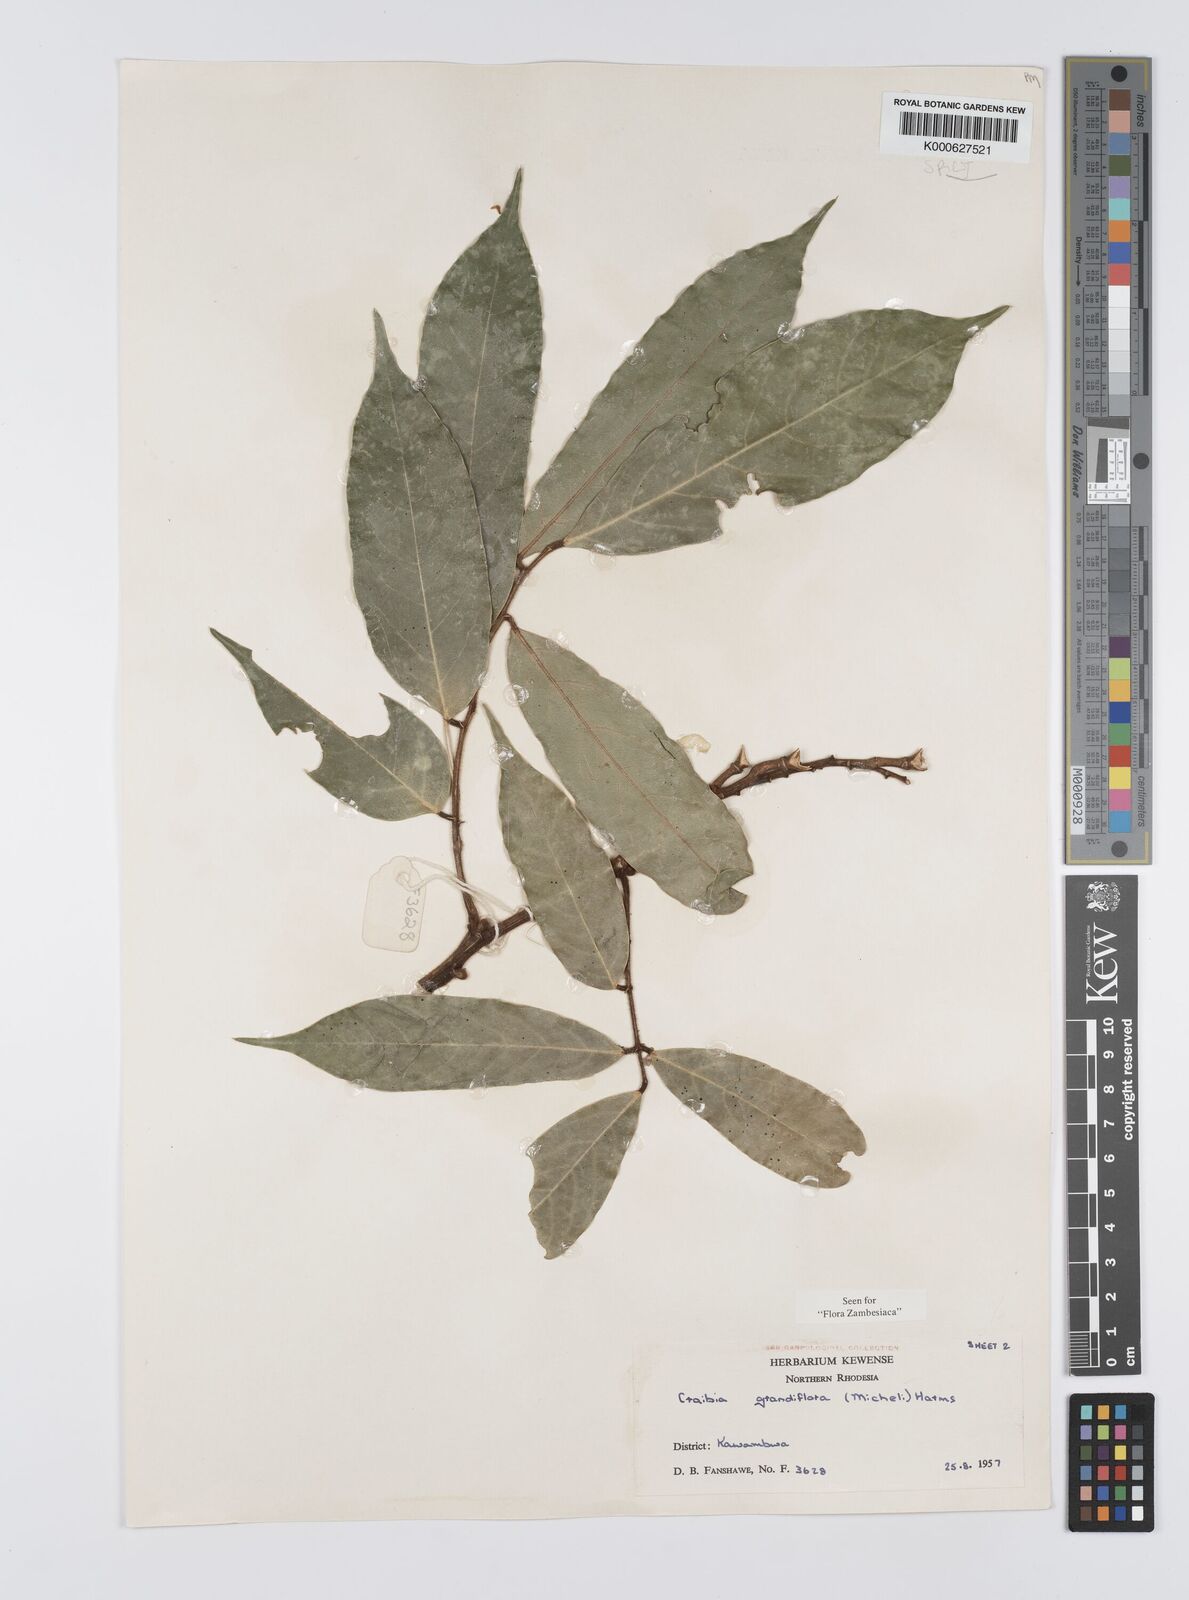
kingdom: Plantae
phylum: Tracheophyta
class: Magnoliopsida
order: Fabales
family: Fabaceae
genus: Craibia
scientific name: Craibia grandiflora
